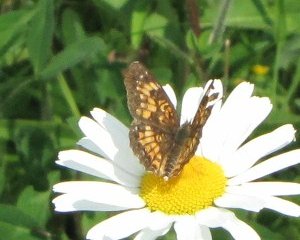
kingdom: Animalia
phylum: Arthropoda
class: Insecta
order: Lepidoptera
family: Nymphalidae
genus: Chlosyne
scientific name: Chlosyne harrisii
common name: Harris's Checkerspot
